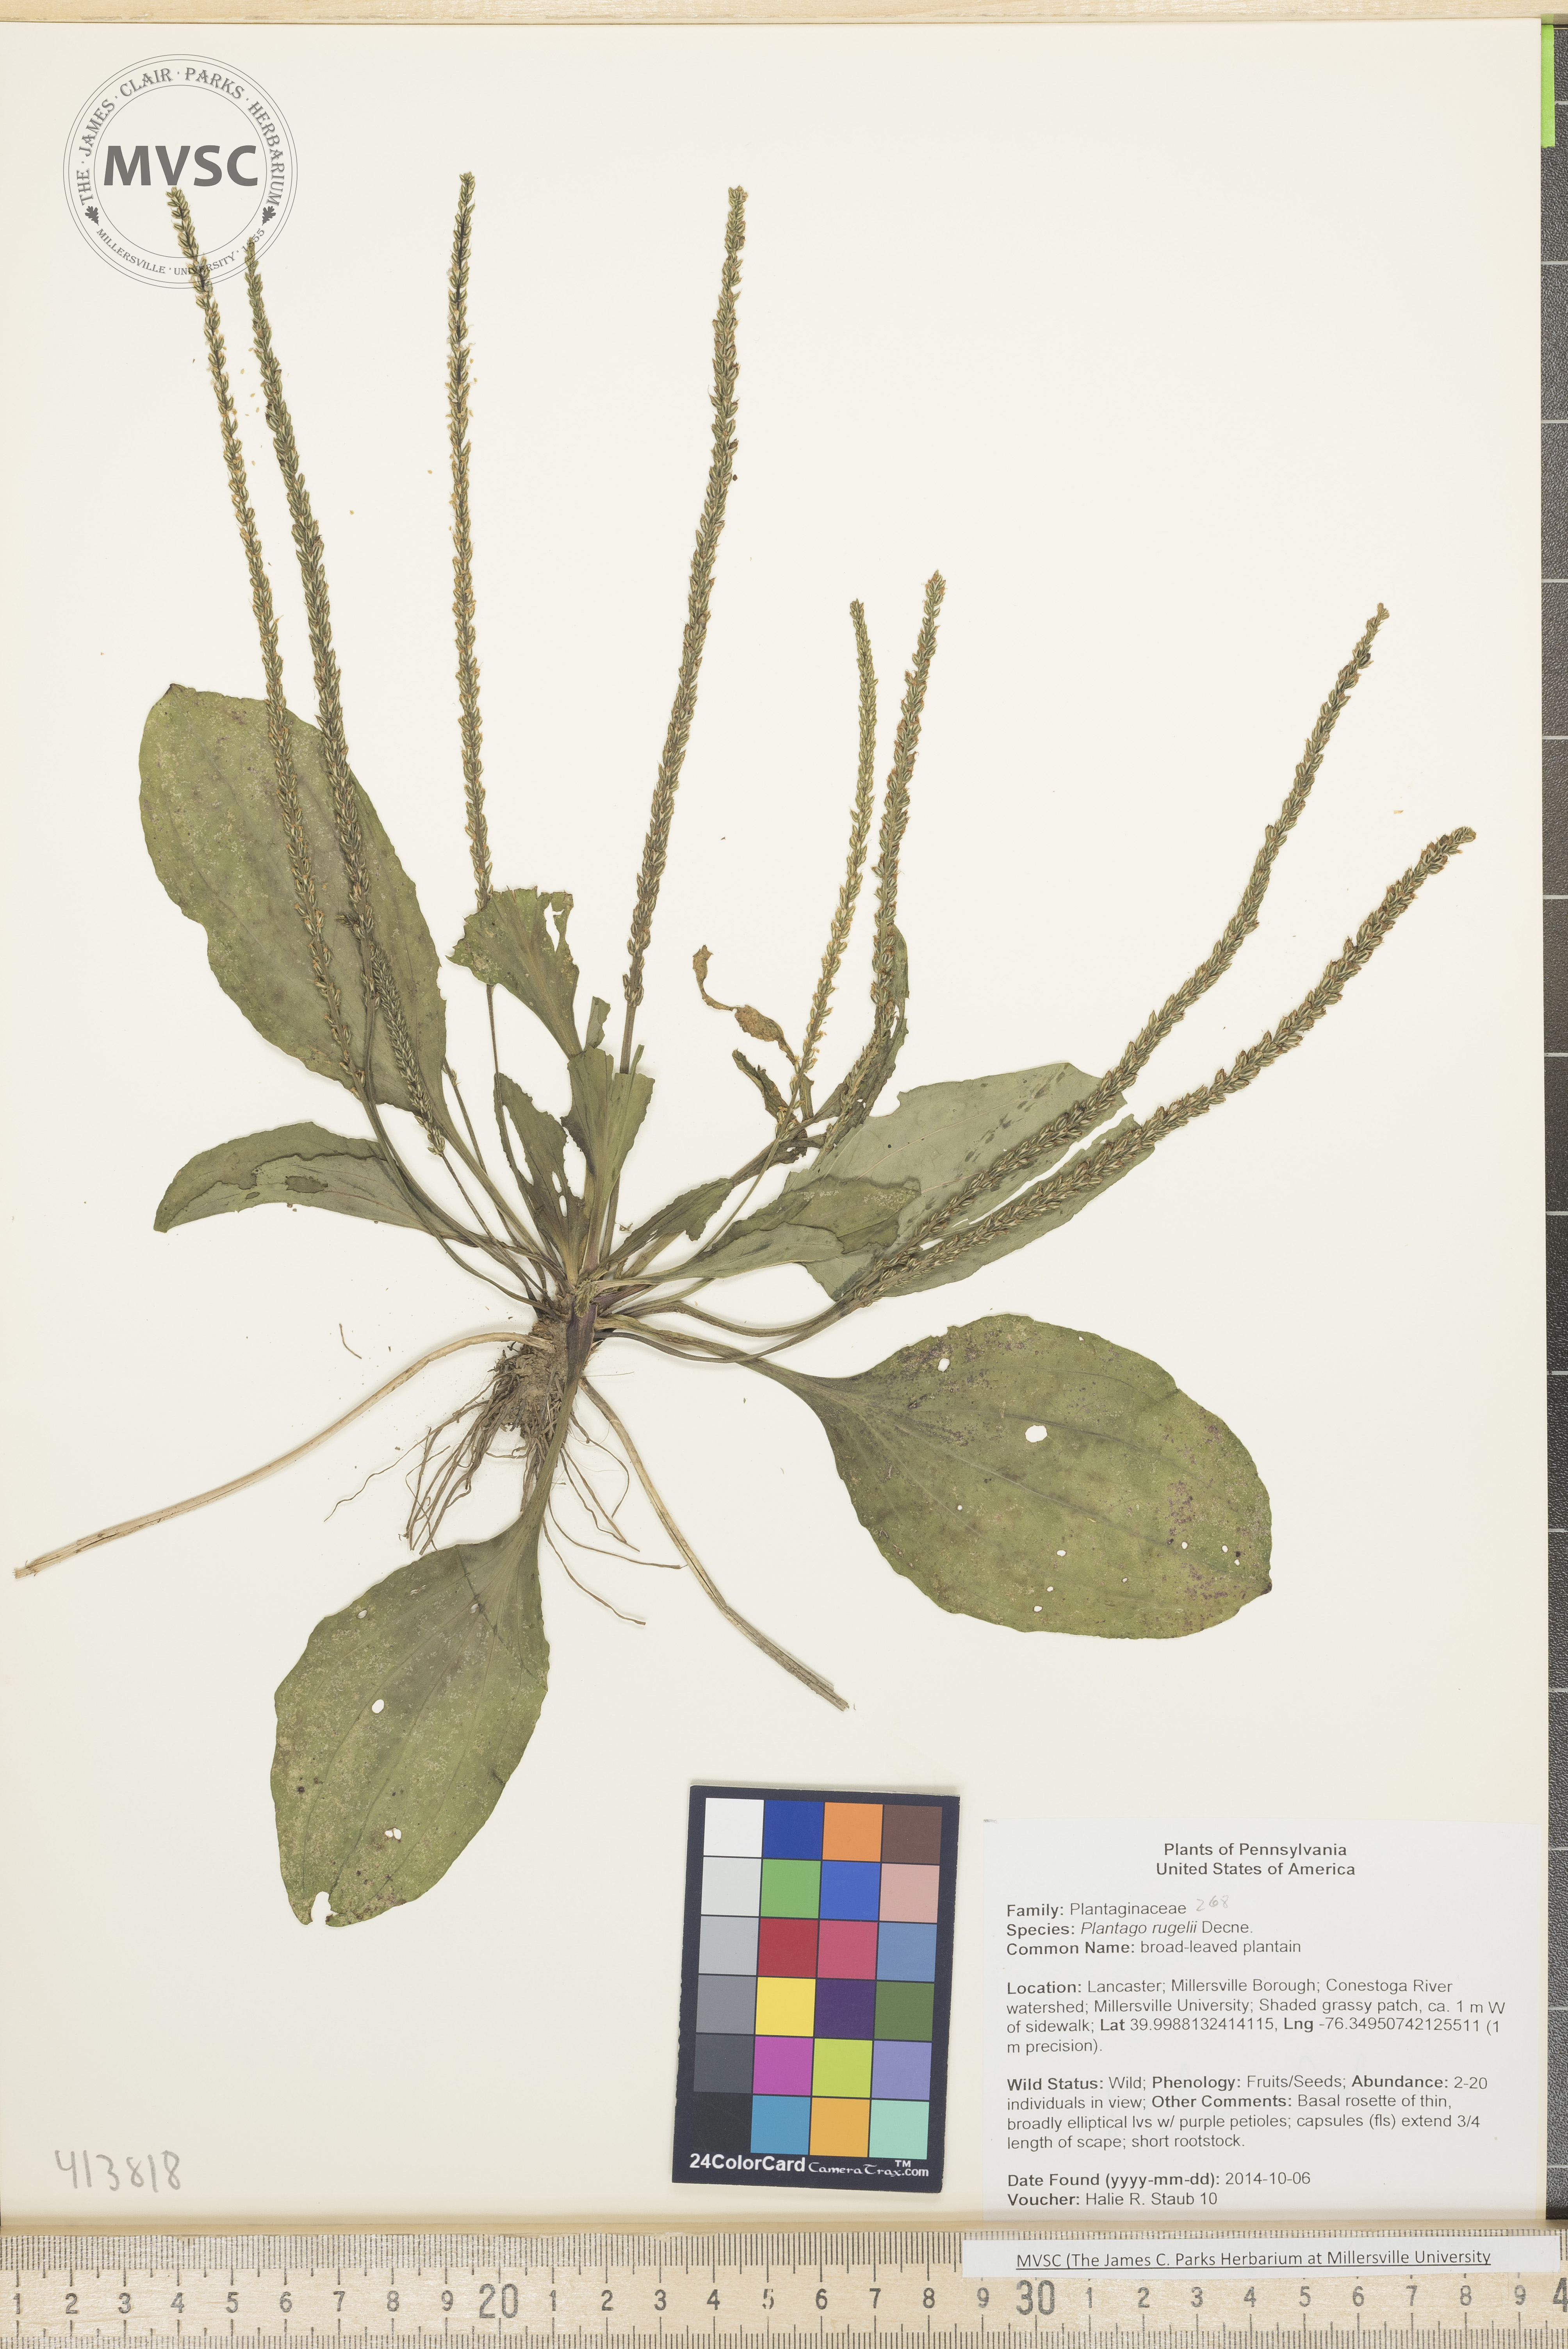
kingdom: Plantae
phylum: Tracheophyta
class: Magnoliopsida
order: Lamiales
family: Plantaginaceae
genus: Plantago
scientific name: Plantago rugelii
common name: Broad-leaved plantain
